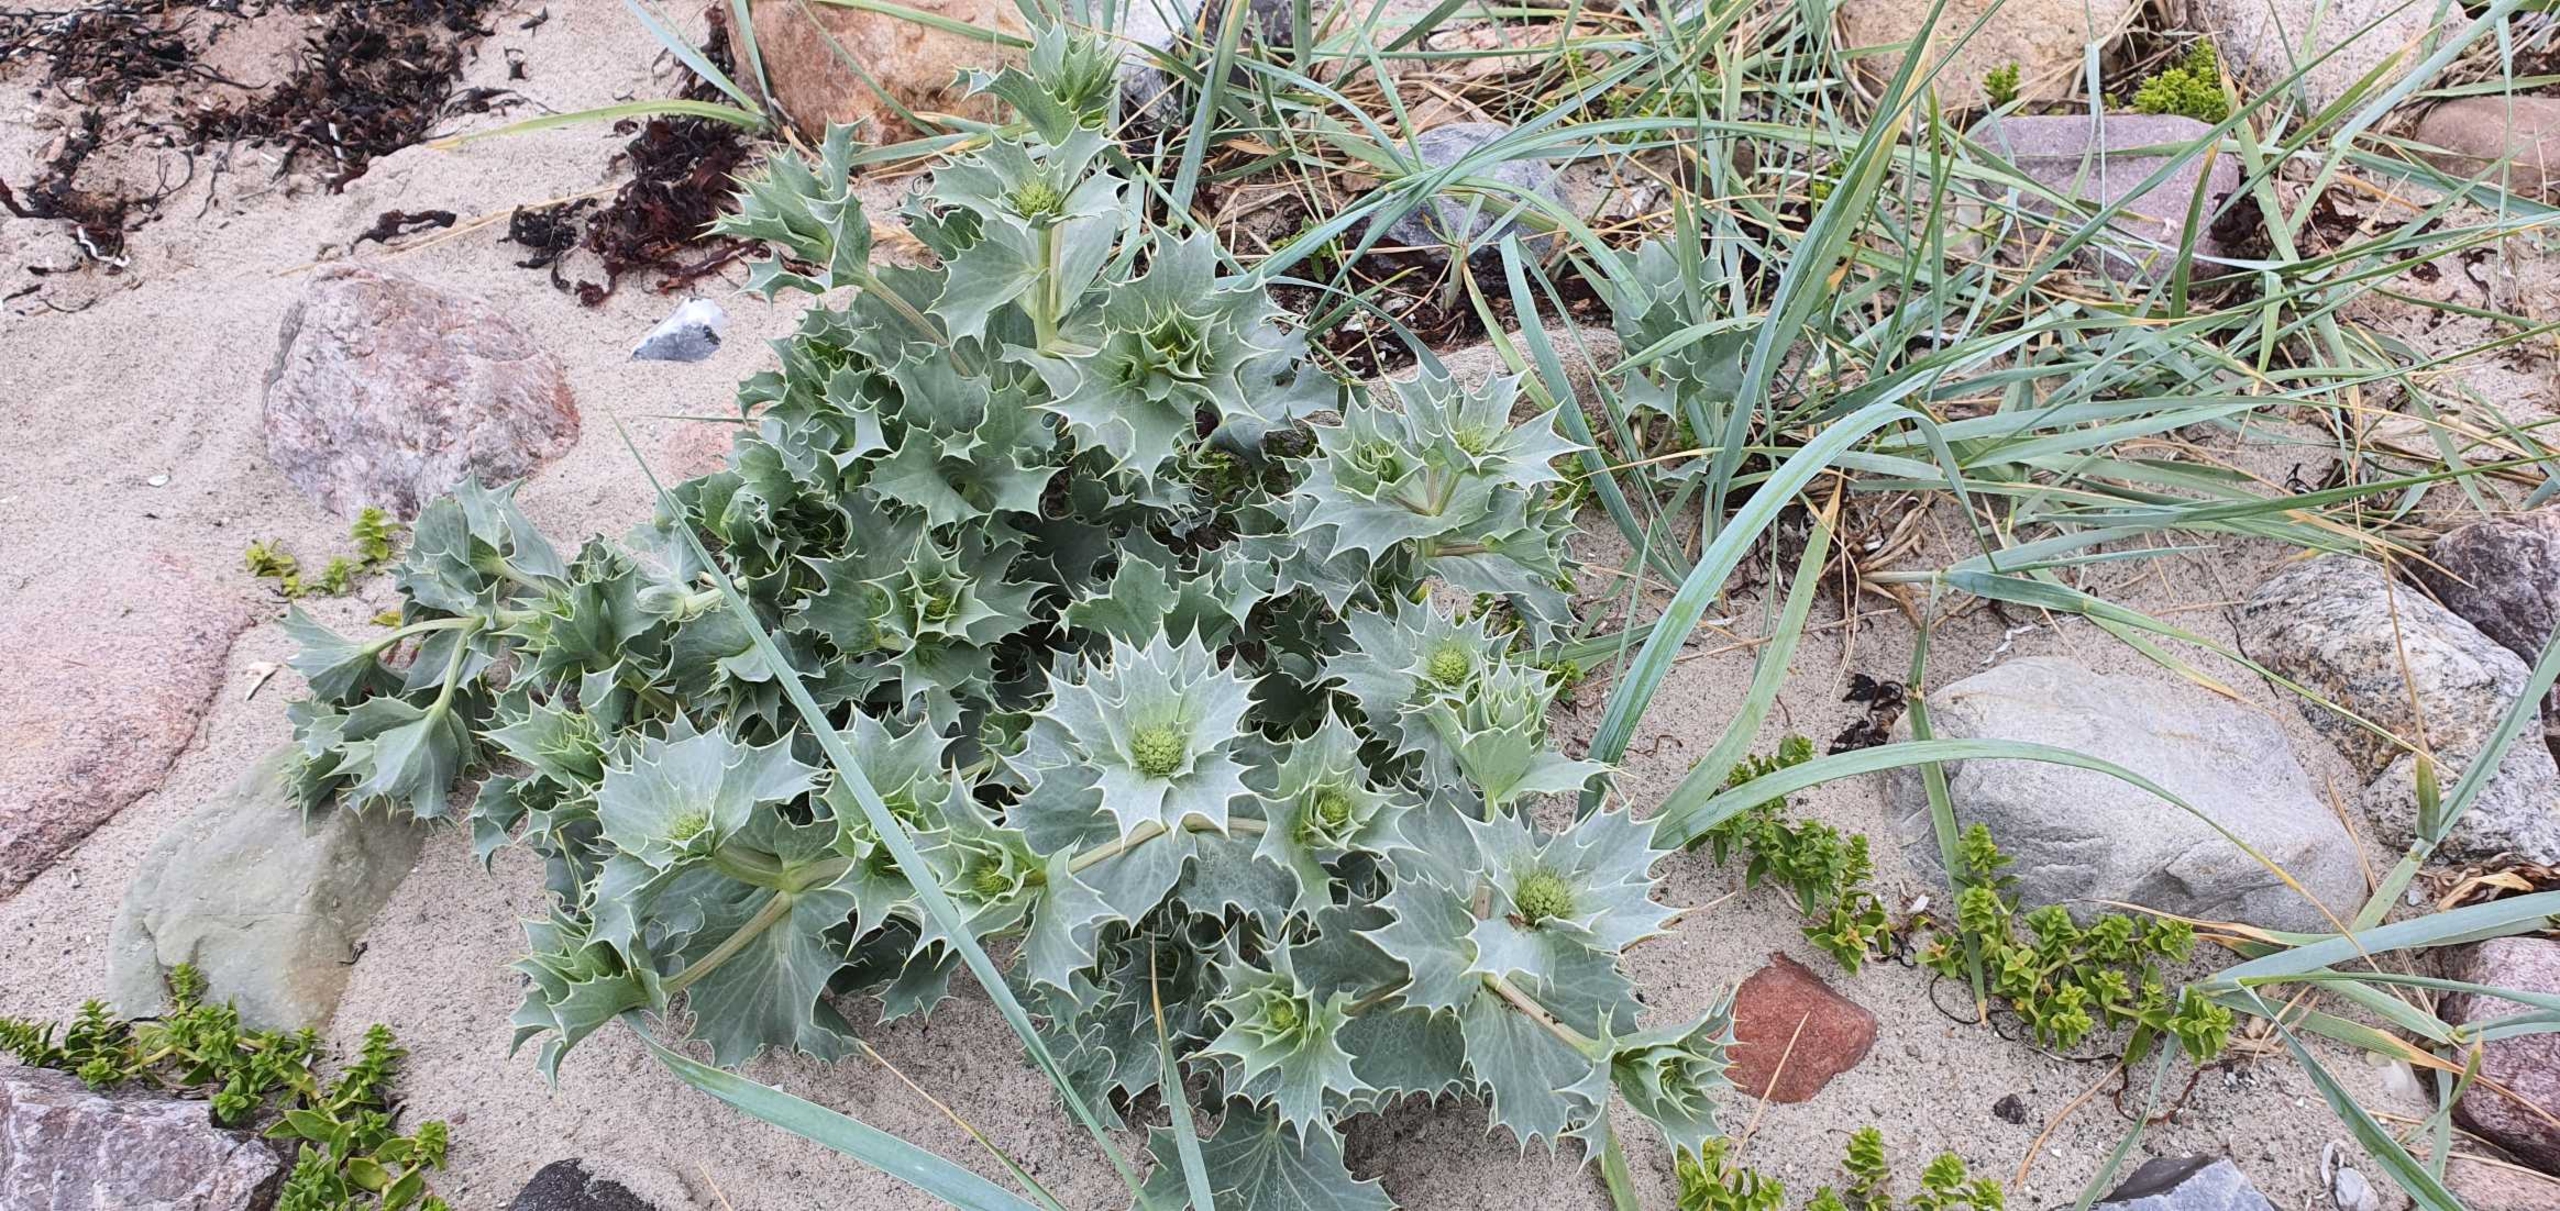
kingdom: Plantae
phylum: Tracheophyta
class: Magnoliopsida
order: Apiales
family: Apiaceae
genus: Eryngium
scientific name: Eryngium maritimum
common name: Strand-mandstro
